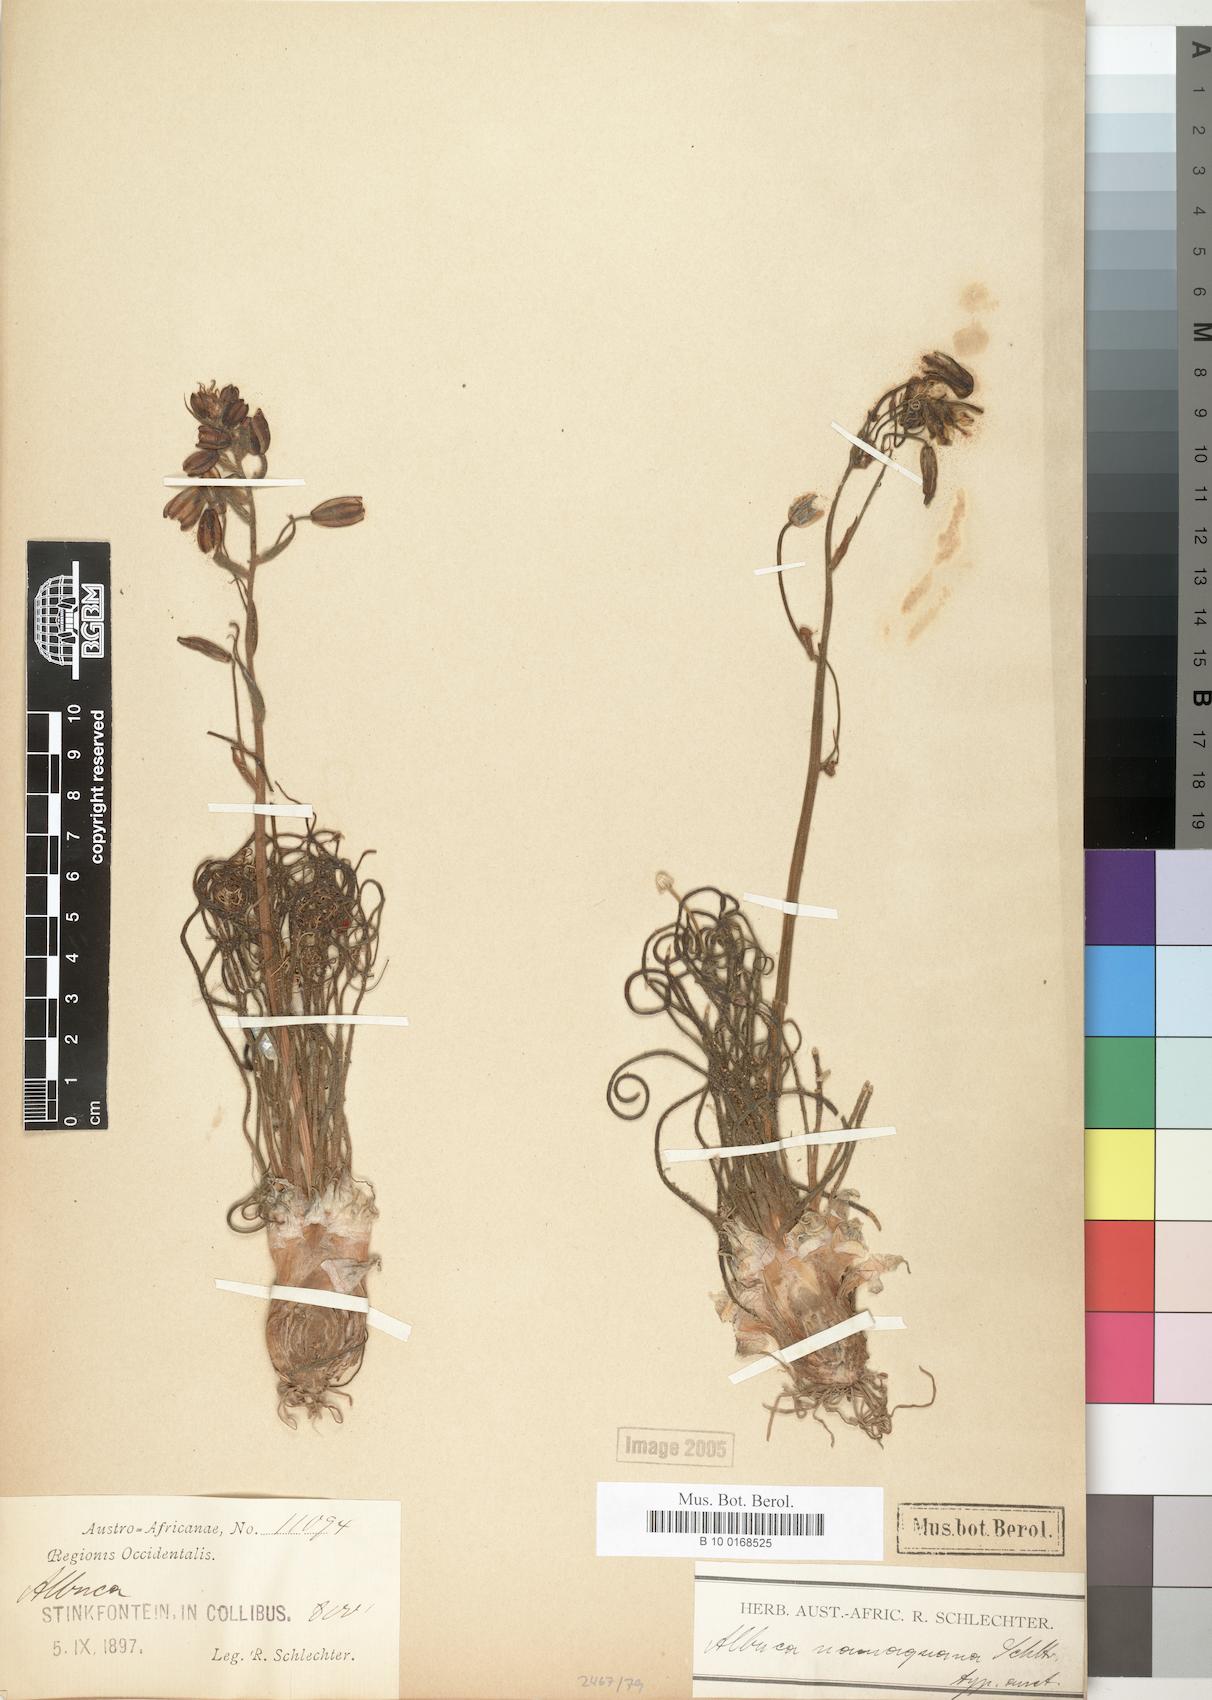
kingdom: Plantae
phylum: Tracheophyta
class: Liliopsida
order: Asparagales
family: Asparagaceae
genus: Albuca
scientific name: Albuca
